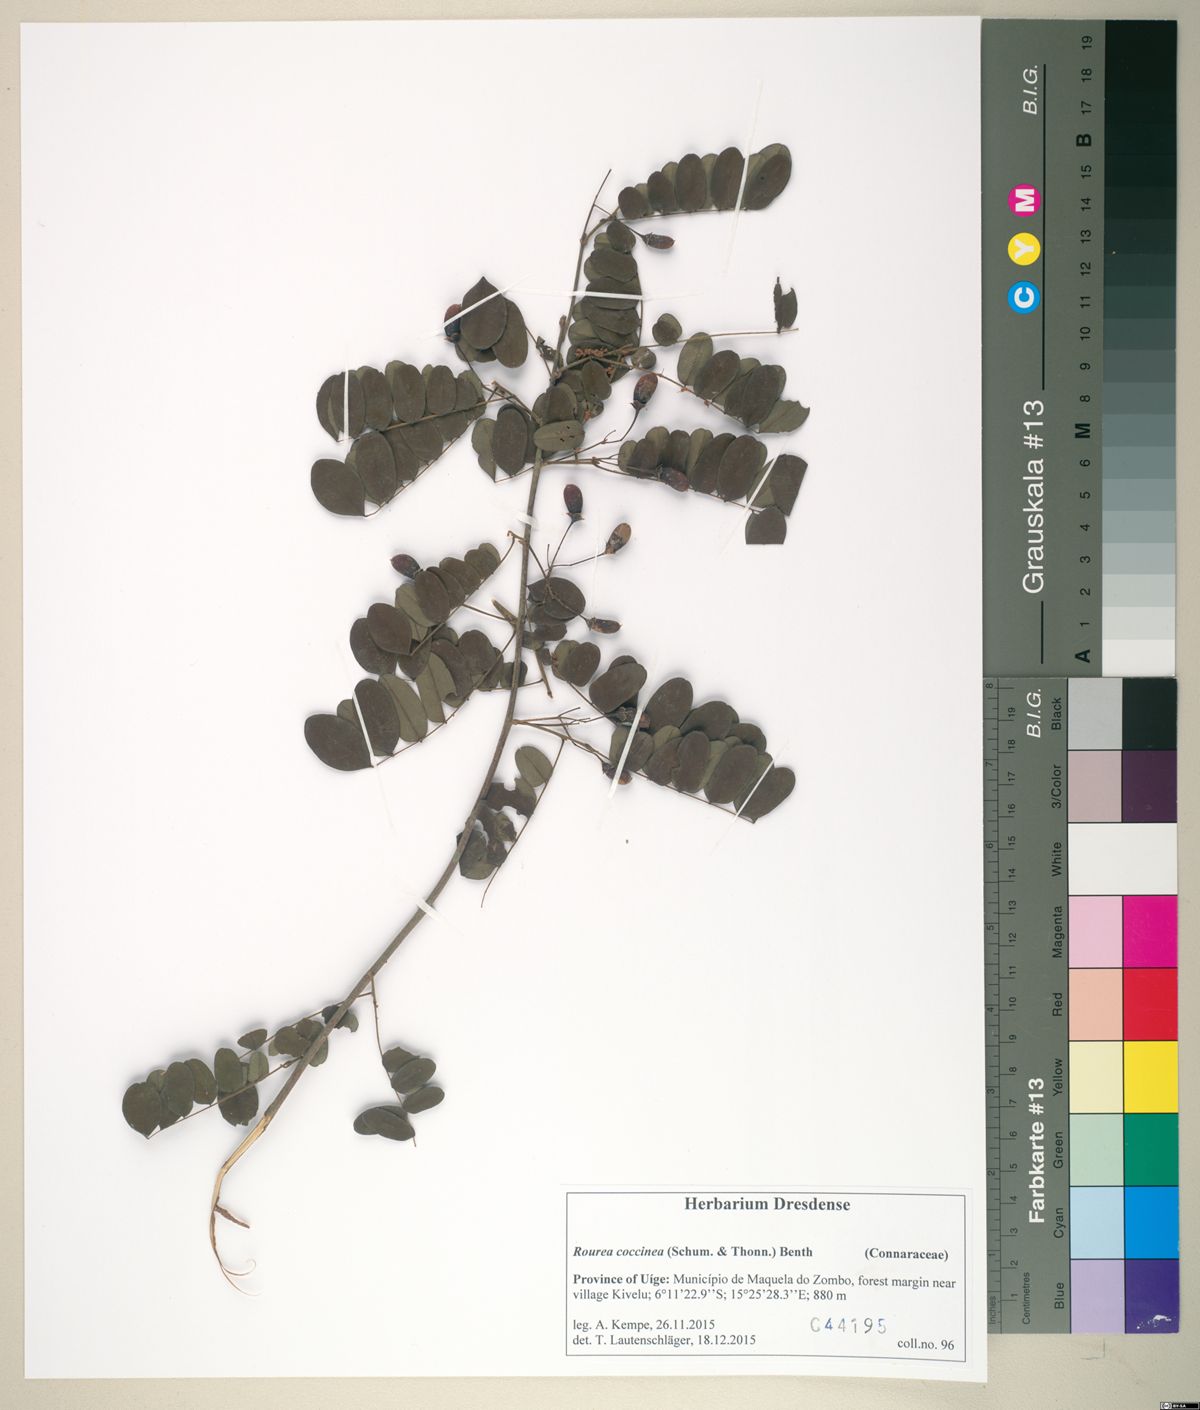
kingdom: Plantae
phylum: Tracheophyta
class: Magnoliopsida
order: Oxalidales
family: Connaraceae
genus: Rourea
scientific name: Rourea coccinea
